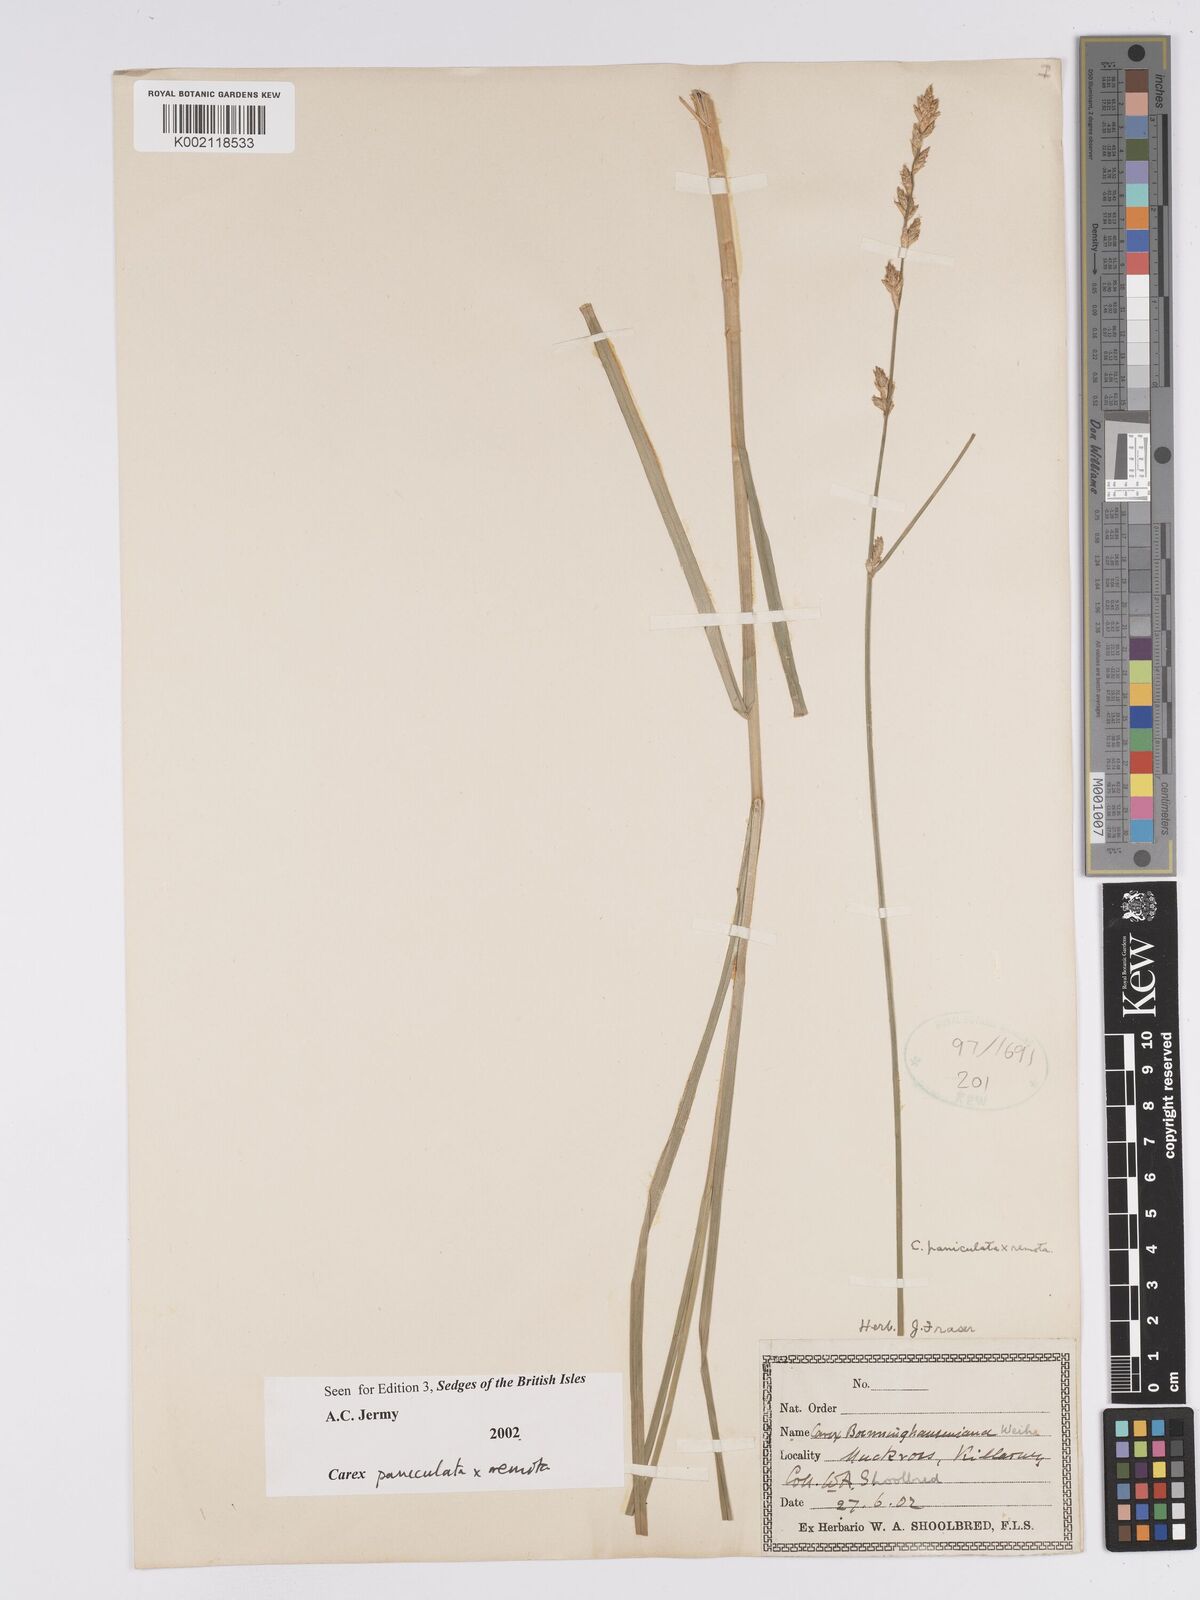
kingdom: Plantae
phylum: Tracheophyta
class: Liliopsida
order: Poales
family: Cyperaceae
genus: Carex
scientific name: Carex boenninghausiana
